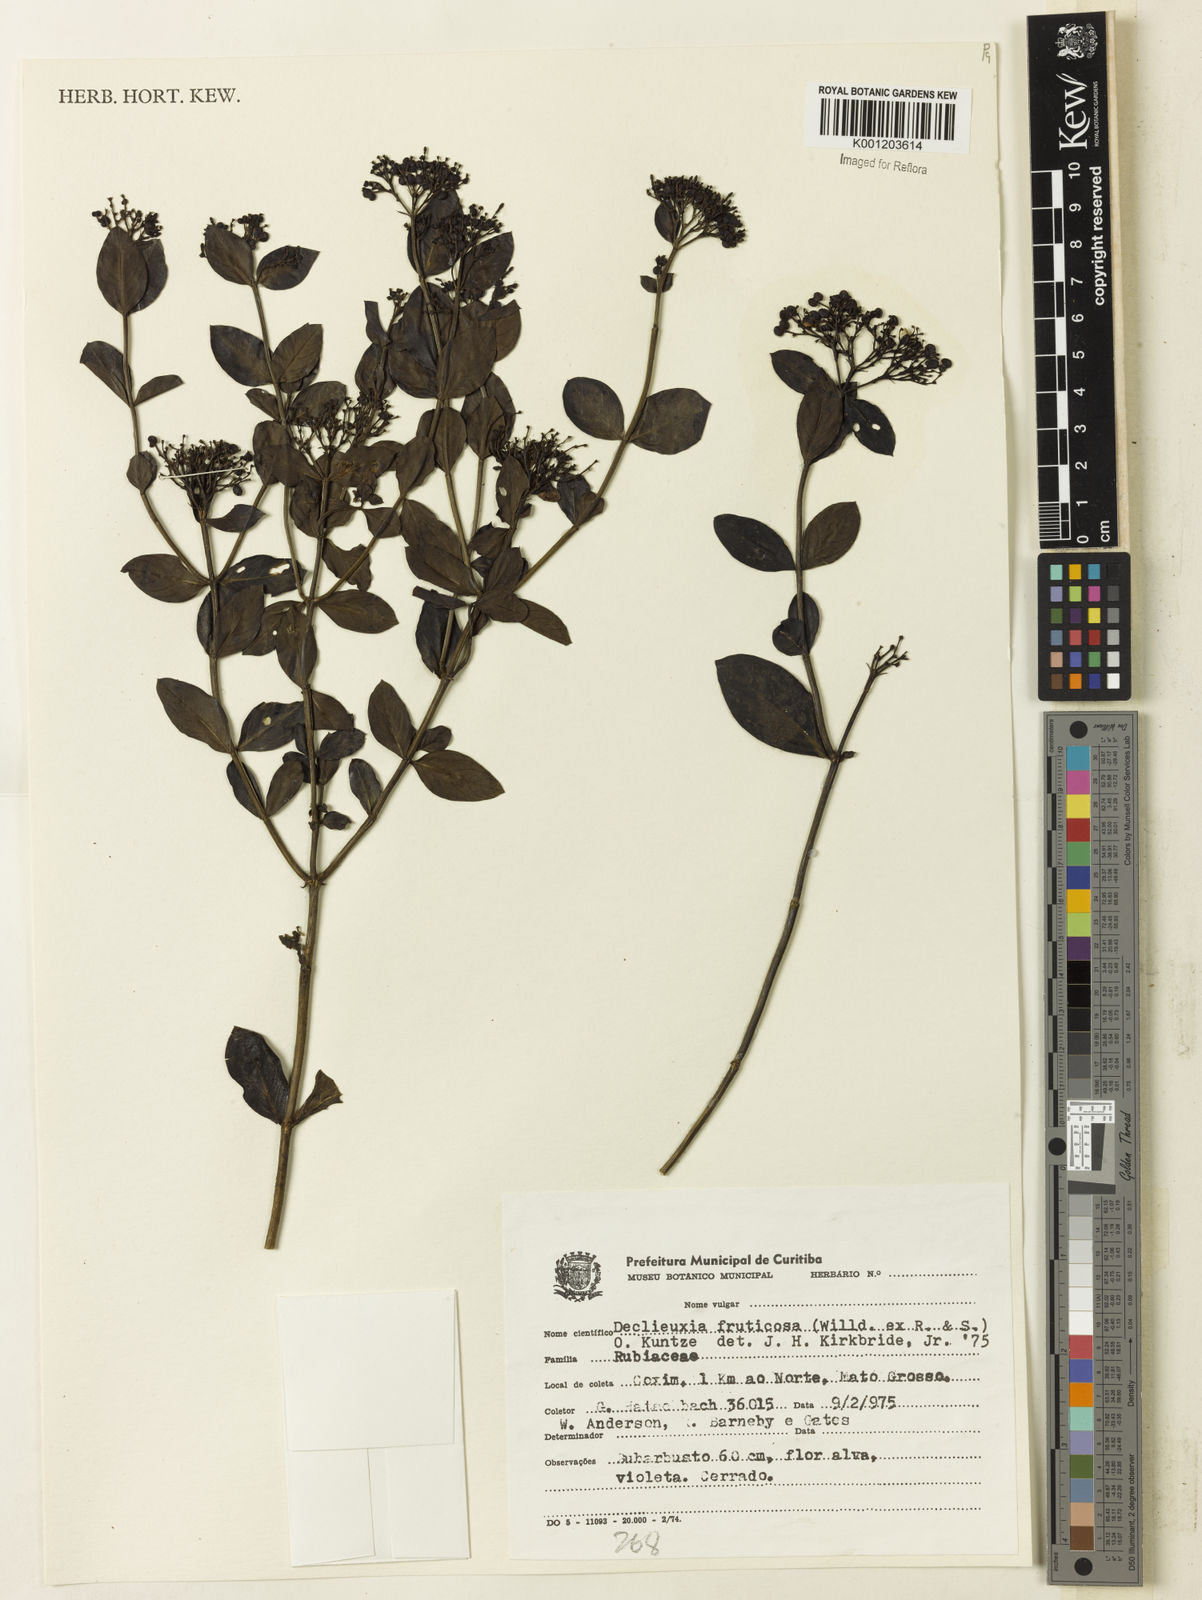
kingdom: Plantae
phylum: Tracheophyta
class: Magnoliopsida
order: Gentianales
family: Rubiaceae
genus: Declieuxia
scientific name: Declieuxia fruticosa
